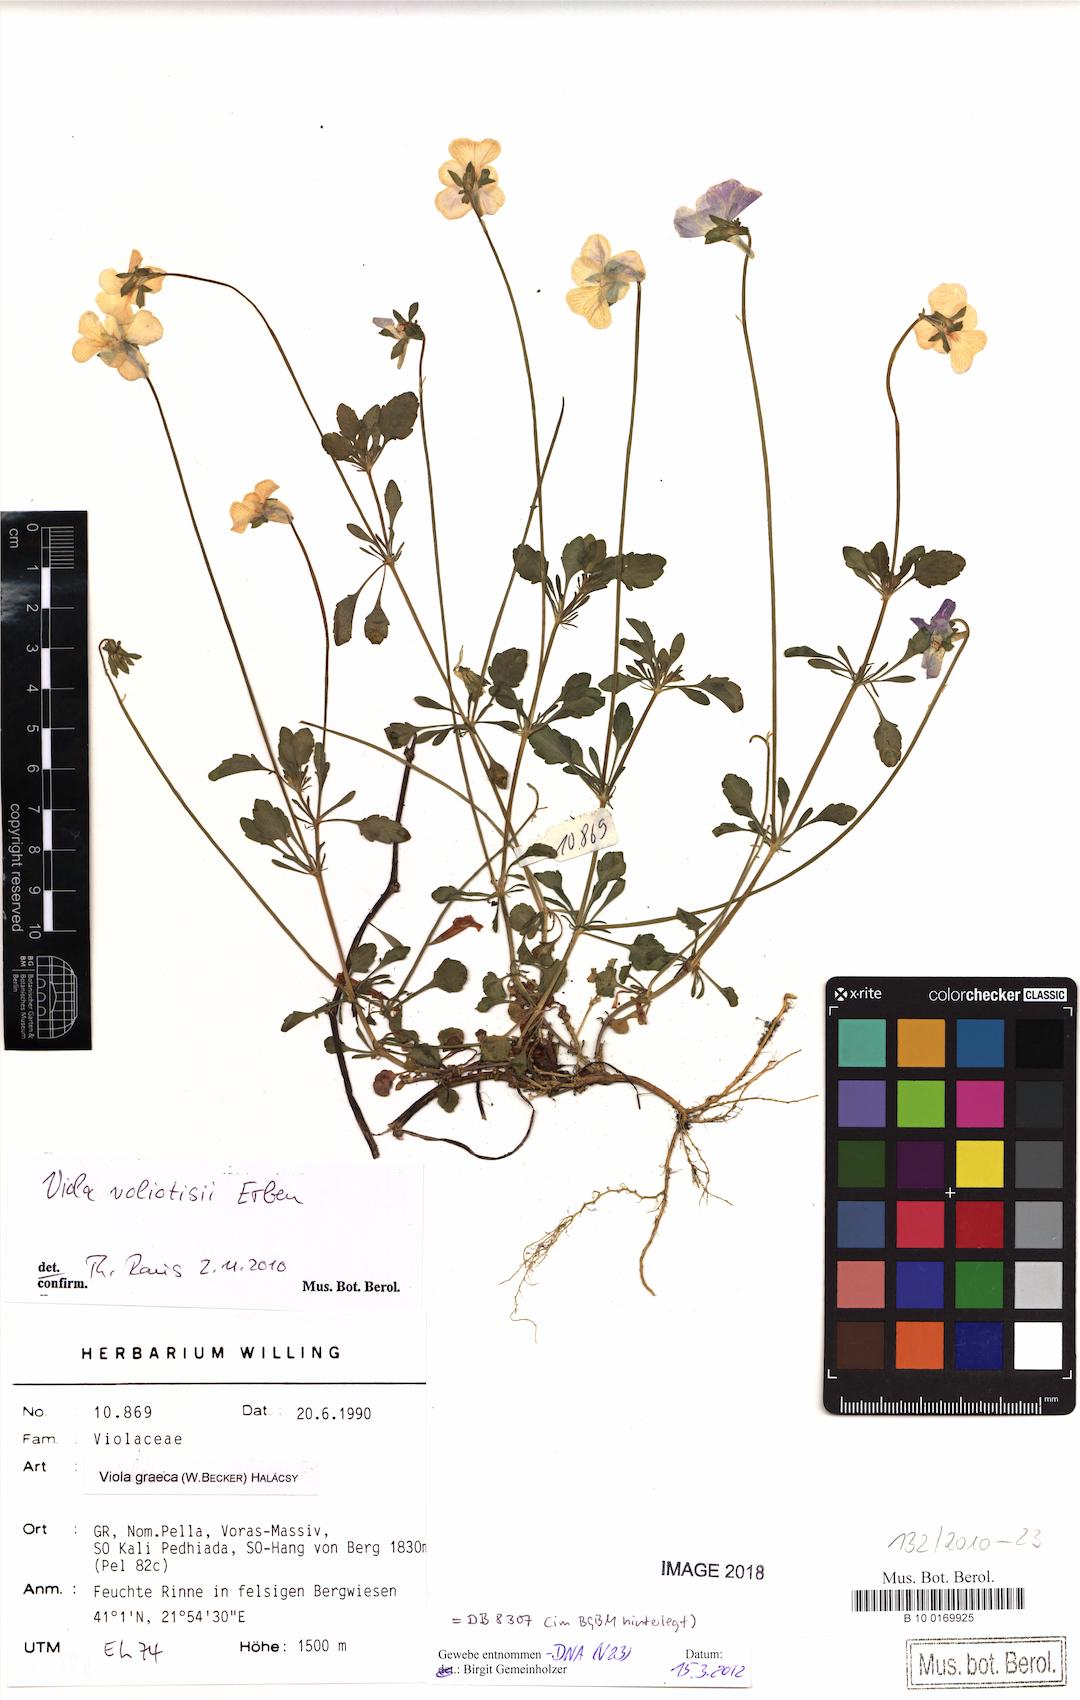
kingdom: Plantae
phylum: Tracheophyta
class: Magnoliopsida
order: Malpighiales
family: Violaceae
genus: Viola
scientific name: Viola voliotisii
